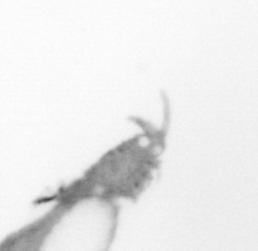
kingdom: Animalia
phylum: Annelida
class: Polychaeta
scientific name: Polychaeta
